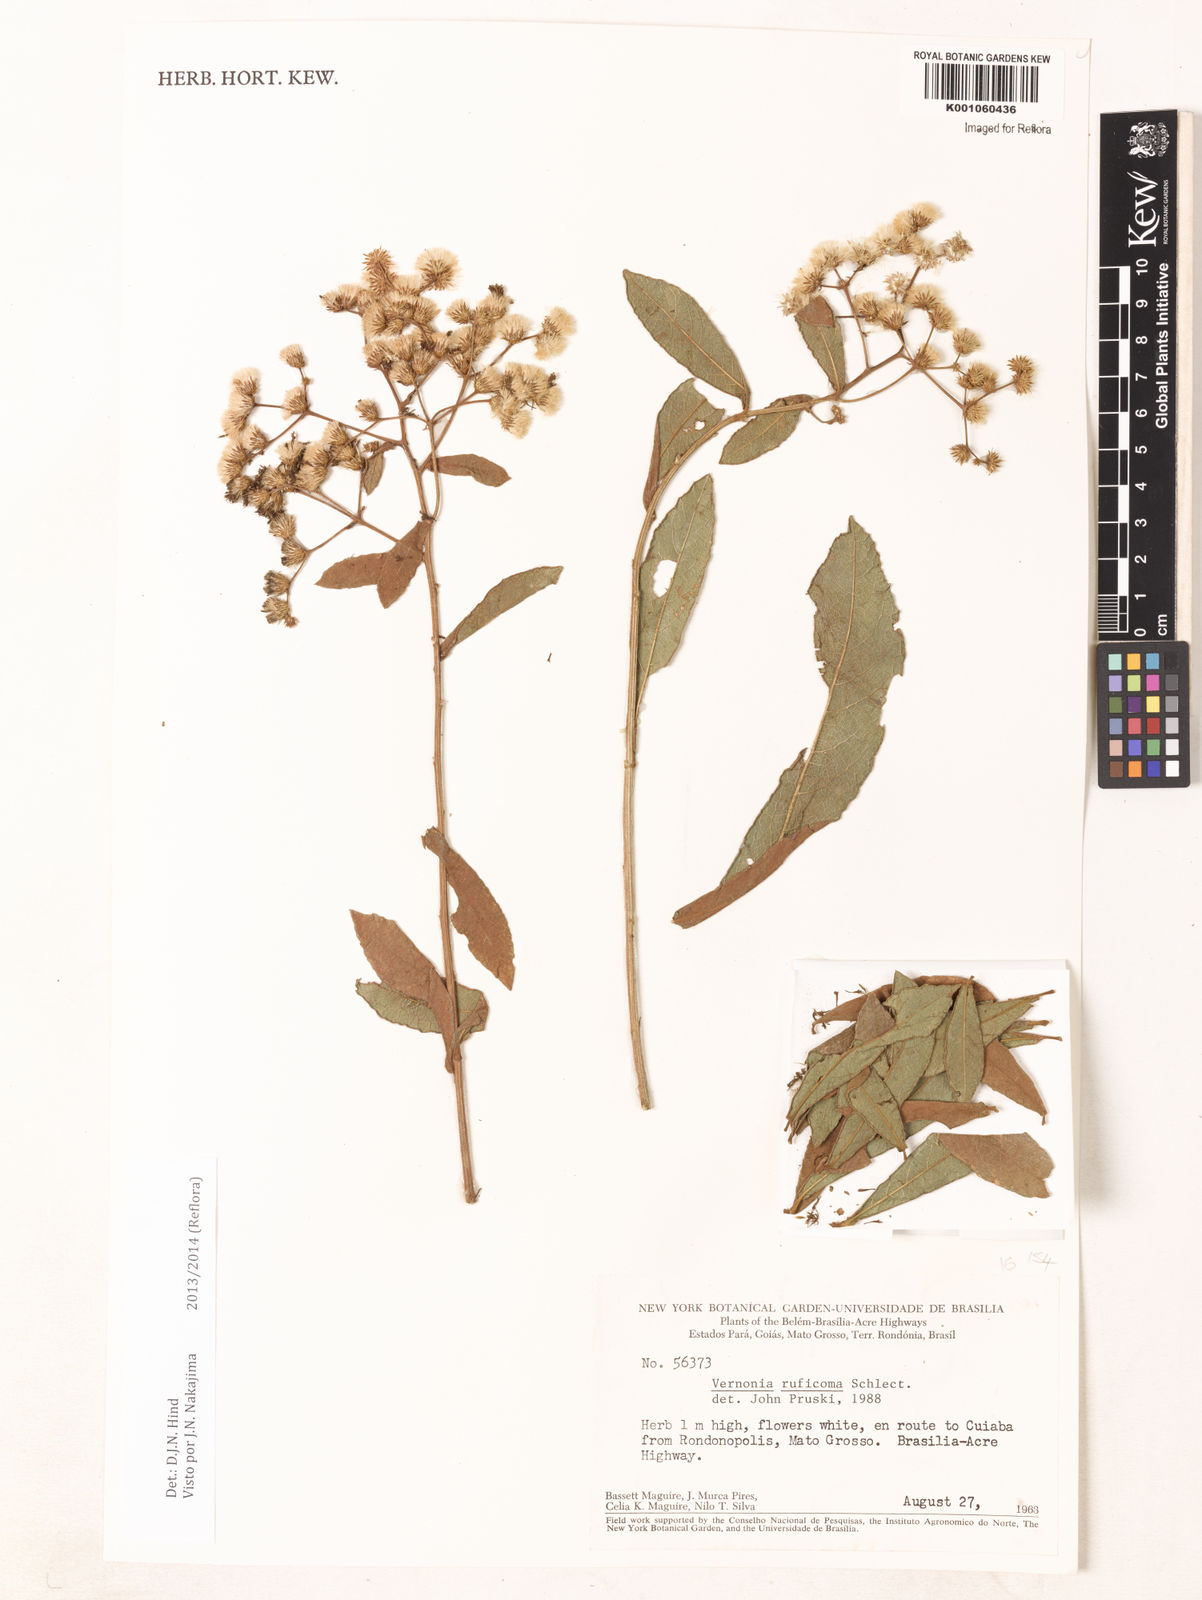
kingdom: Plantae
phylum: Tracheophyta
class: Magnoliopsida
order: Asterales
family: Asteraceae
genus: Vernonanthura
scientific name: Vernonanthura cymosa
